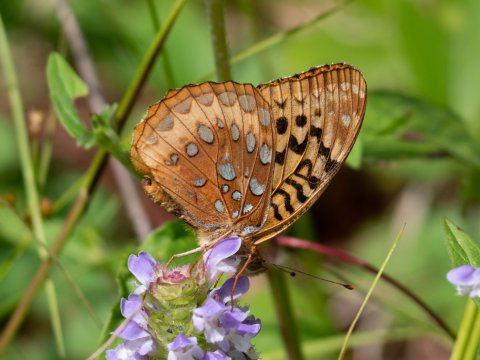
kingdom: Animalia
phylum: Arthropoda
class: Insecta
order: Lepidoptera
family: Nymphalidae
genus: Speyeria
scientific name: Speyeria cybele
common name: Great Spangled Fritillary
